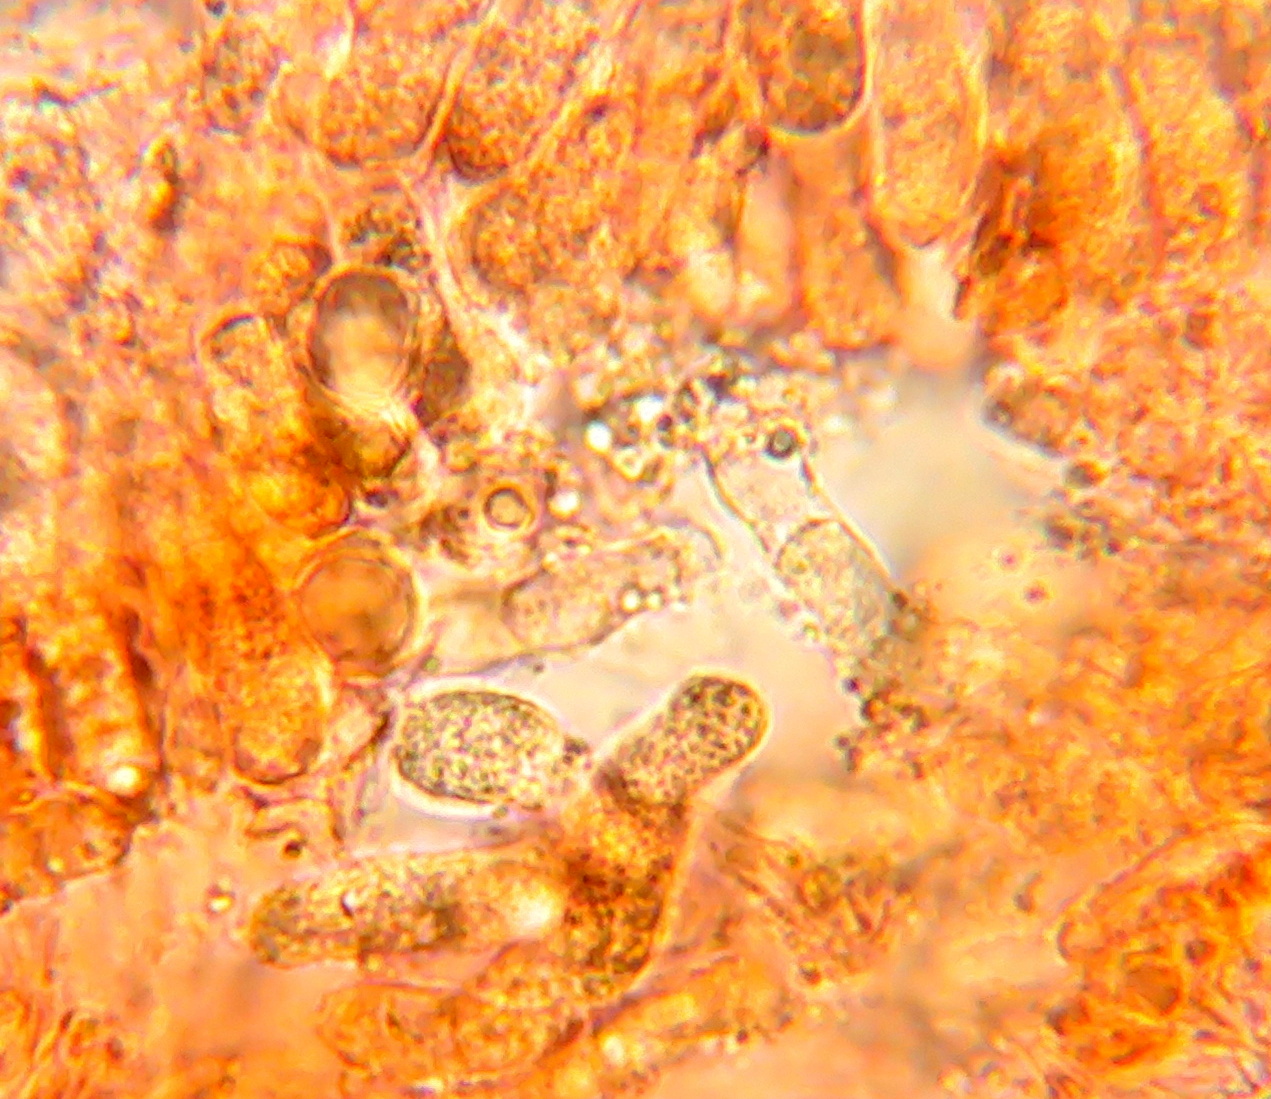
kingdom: Fungi
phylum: Basidiomycota
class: Agaricomycetes
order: Cantharellales
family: Hydnaceae
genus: Clavulina
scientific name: Clavulina
